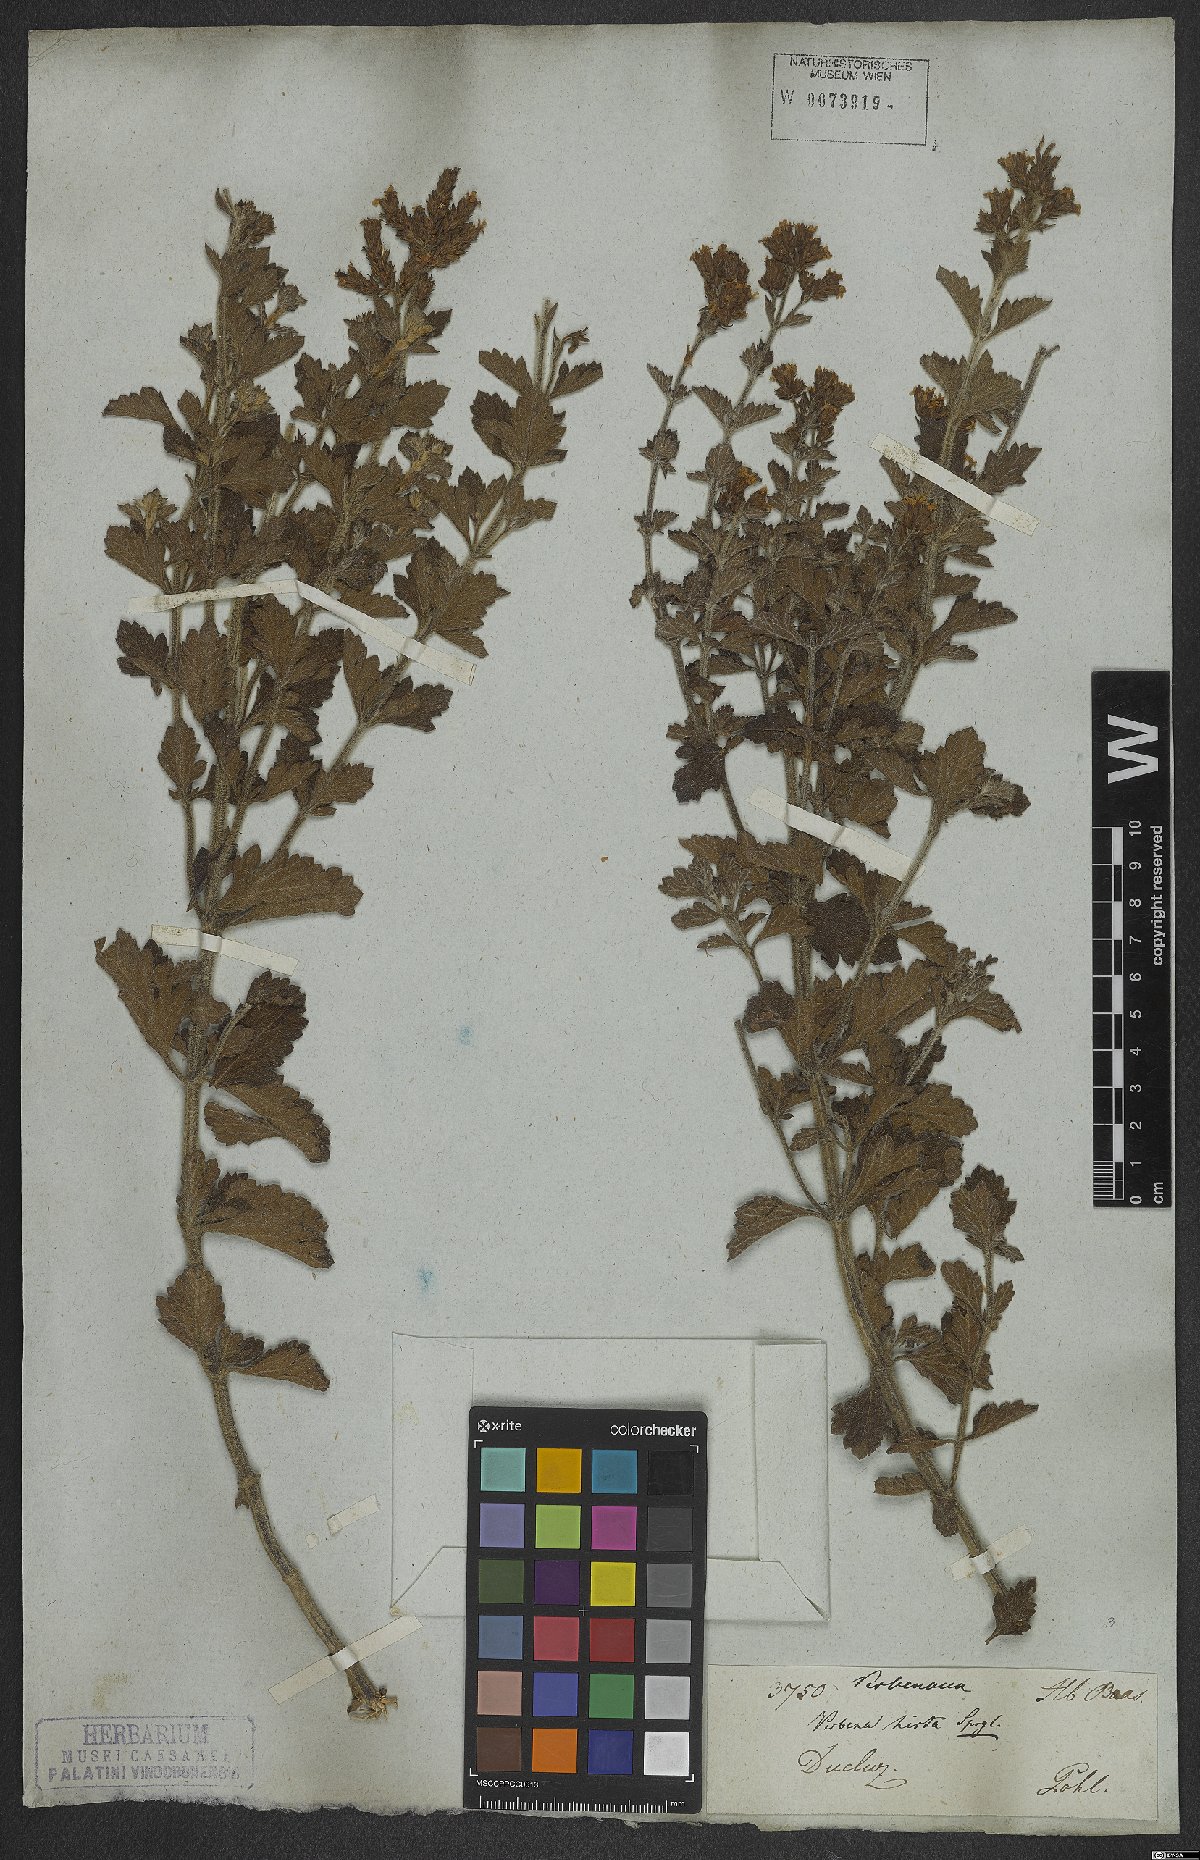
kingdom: Plantae
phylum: Tracheophyta
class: Magnoliopsida
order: Lamiales
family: Verbenaceae
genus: Verbena
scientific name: Verbena hirta
